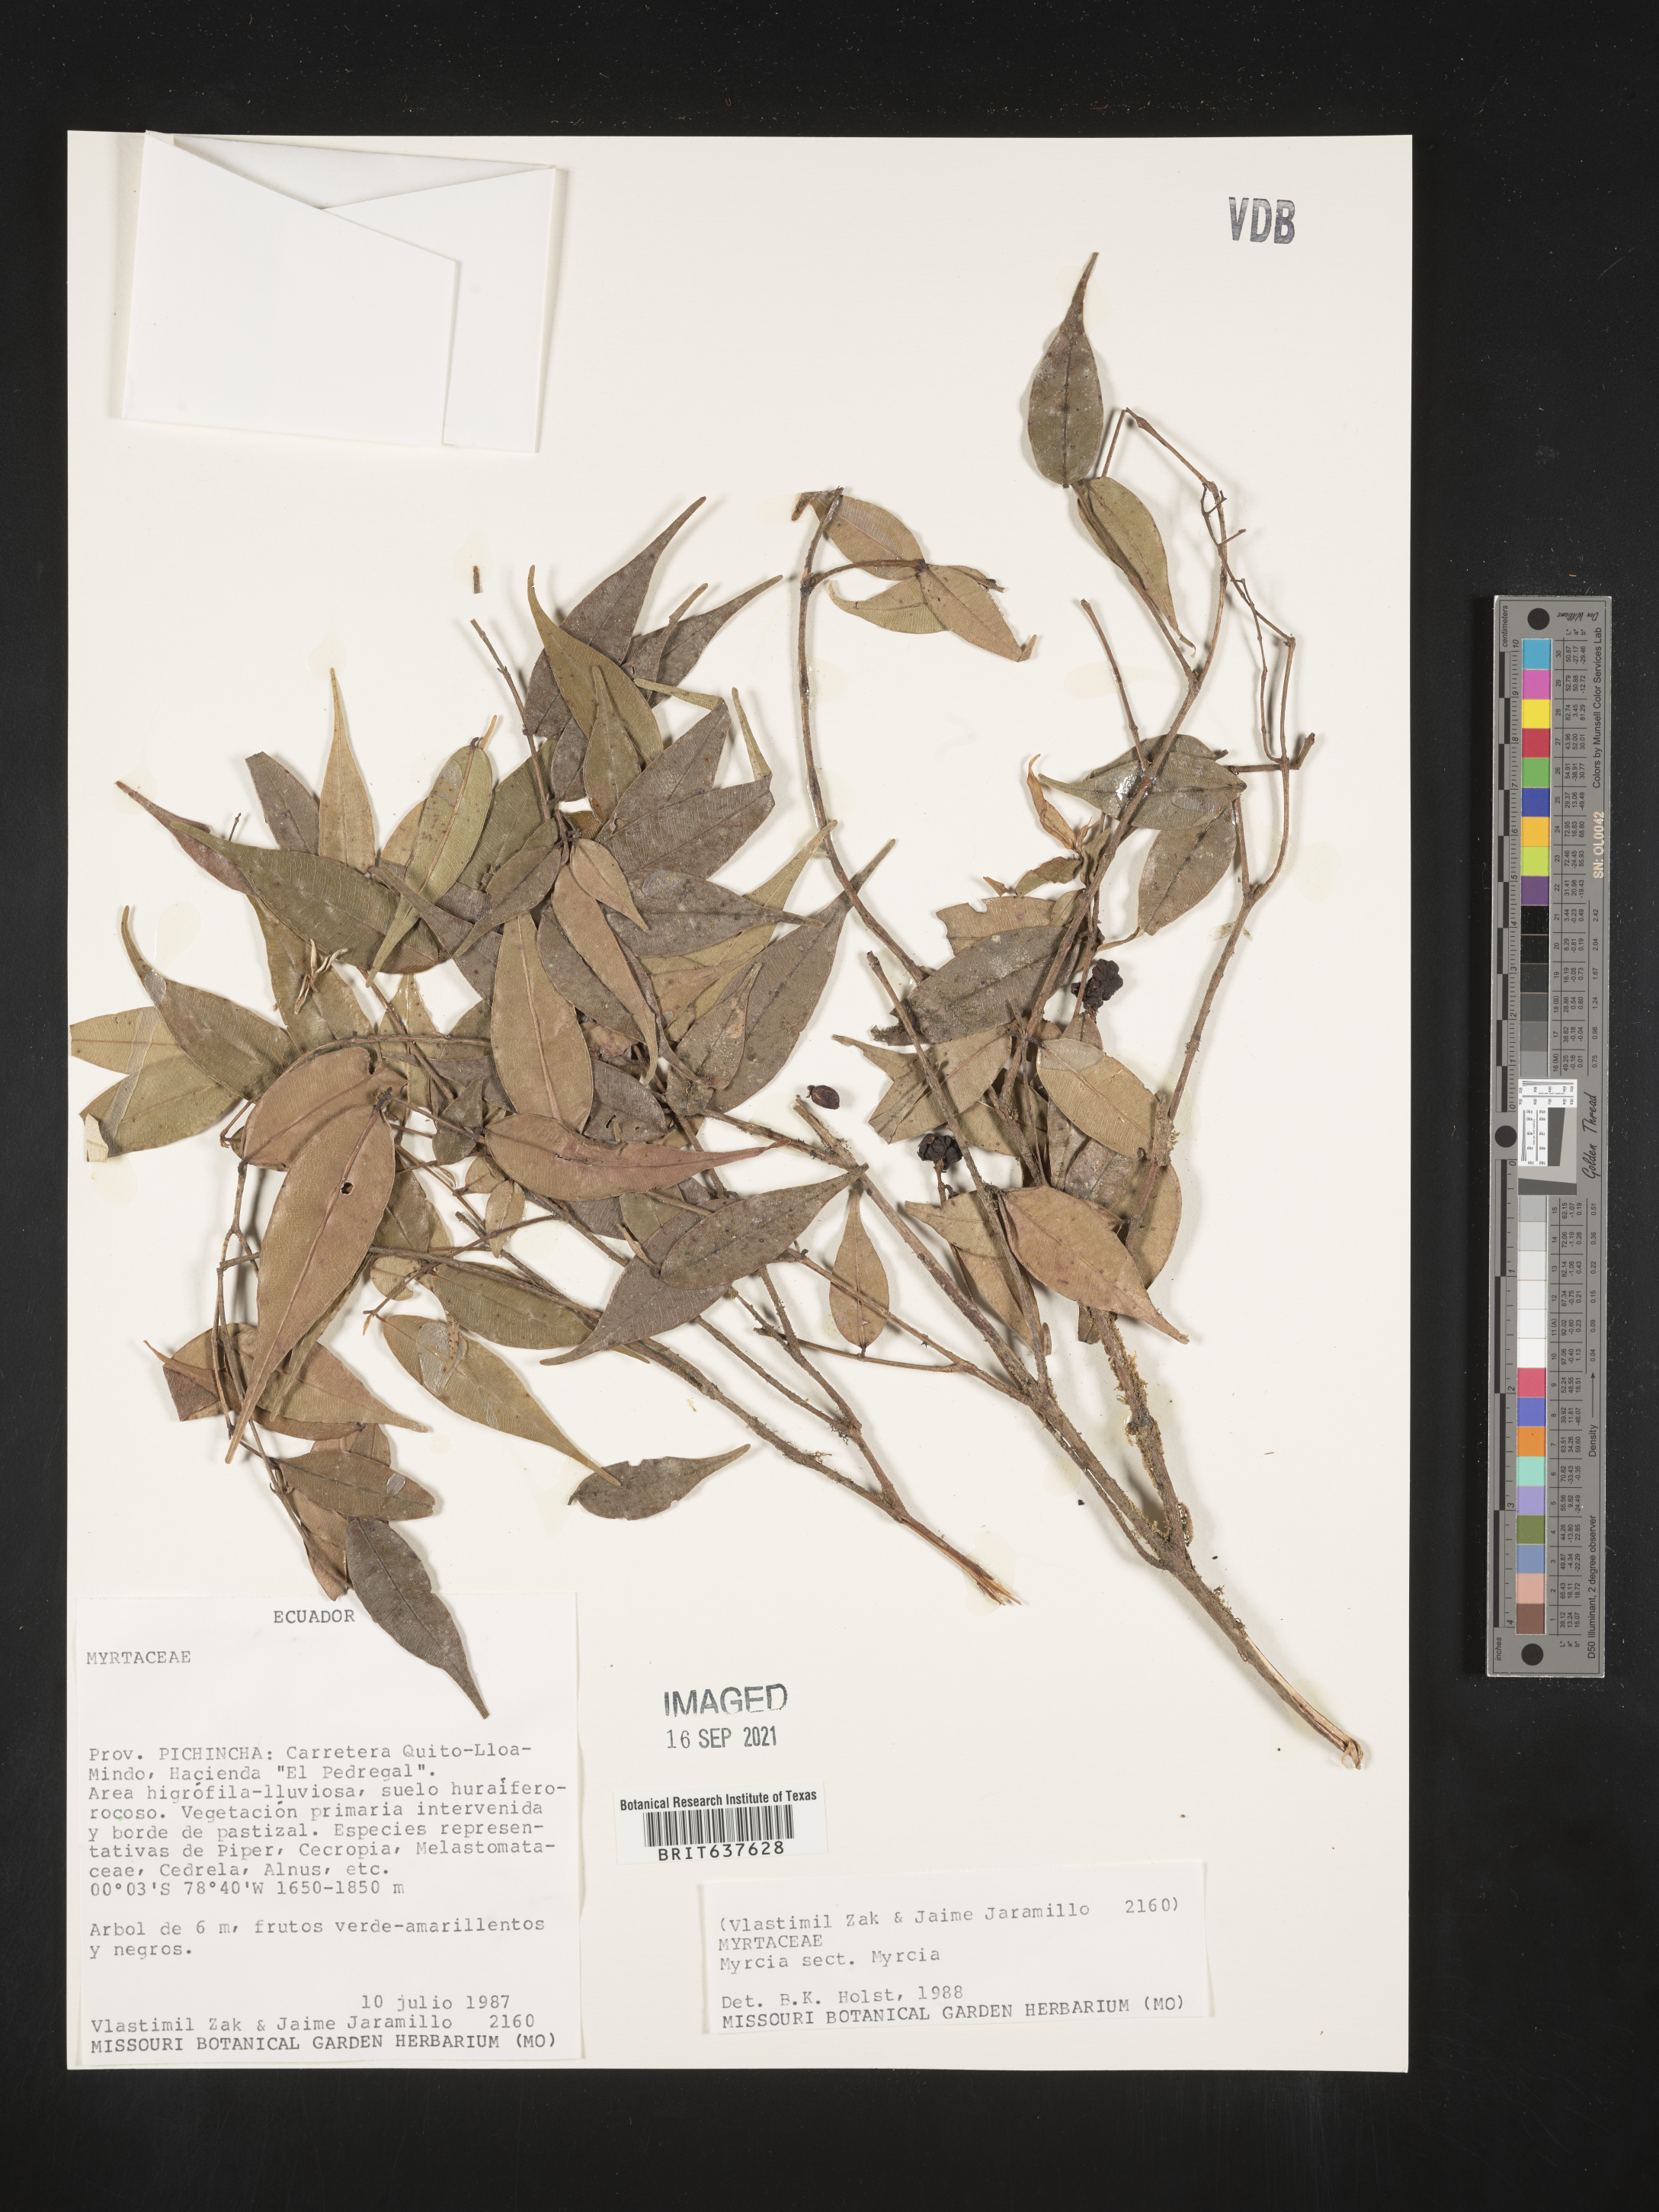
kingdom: Plantae
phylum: Tracheophyta
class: Magnoliopsida
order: Myrtales
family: Myrtaceae
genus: Myrcia
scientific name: Myrcia
